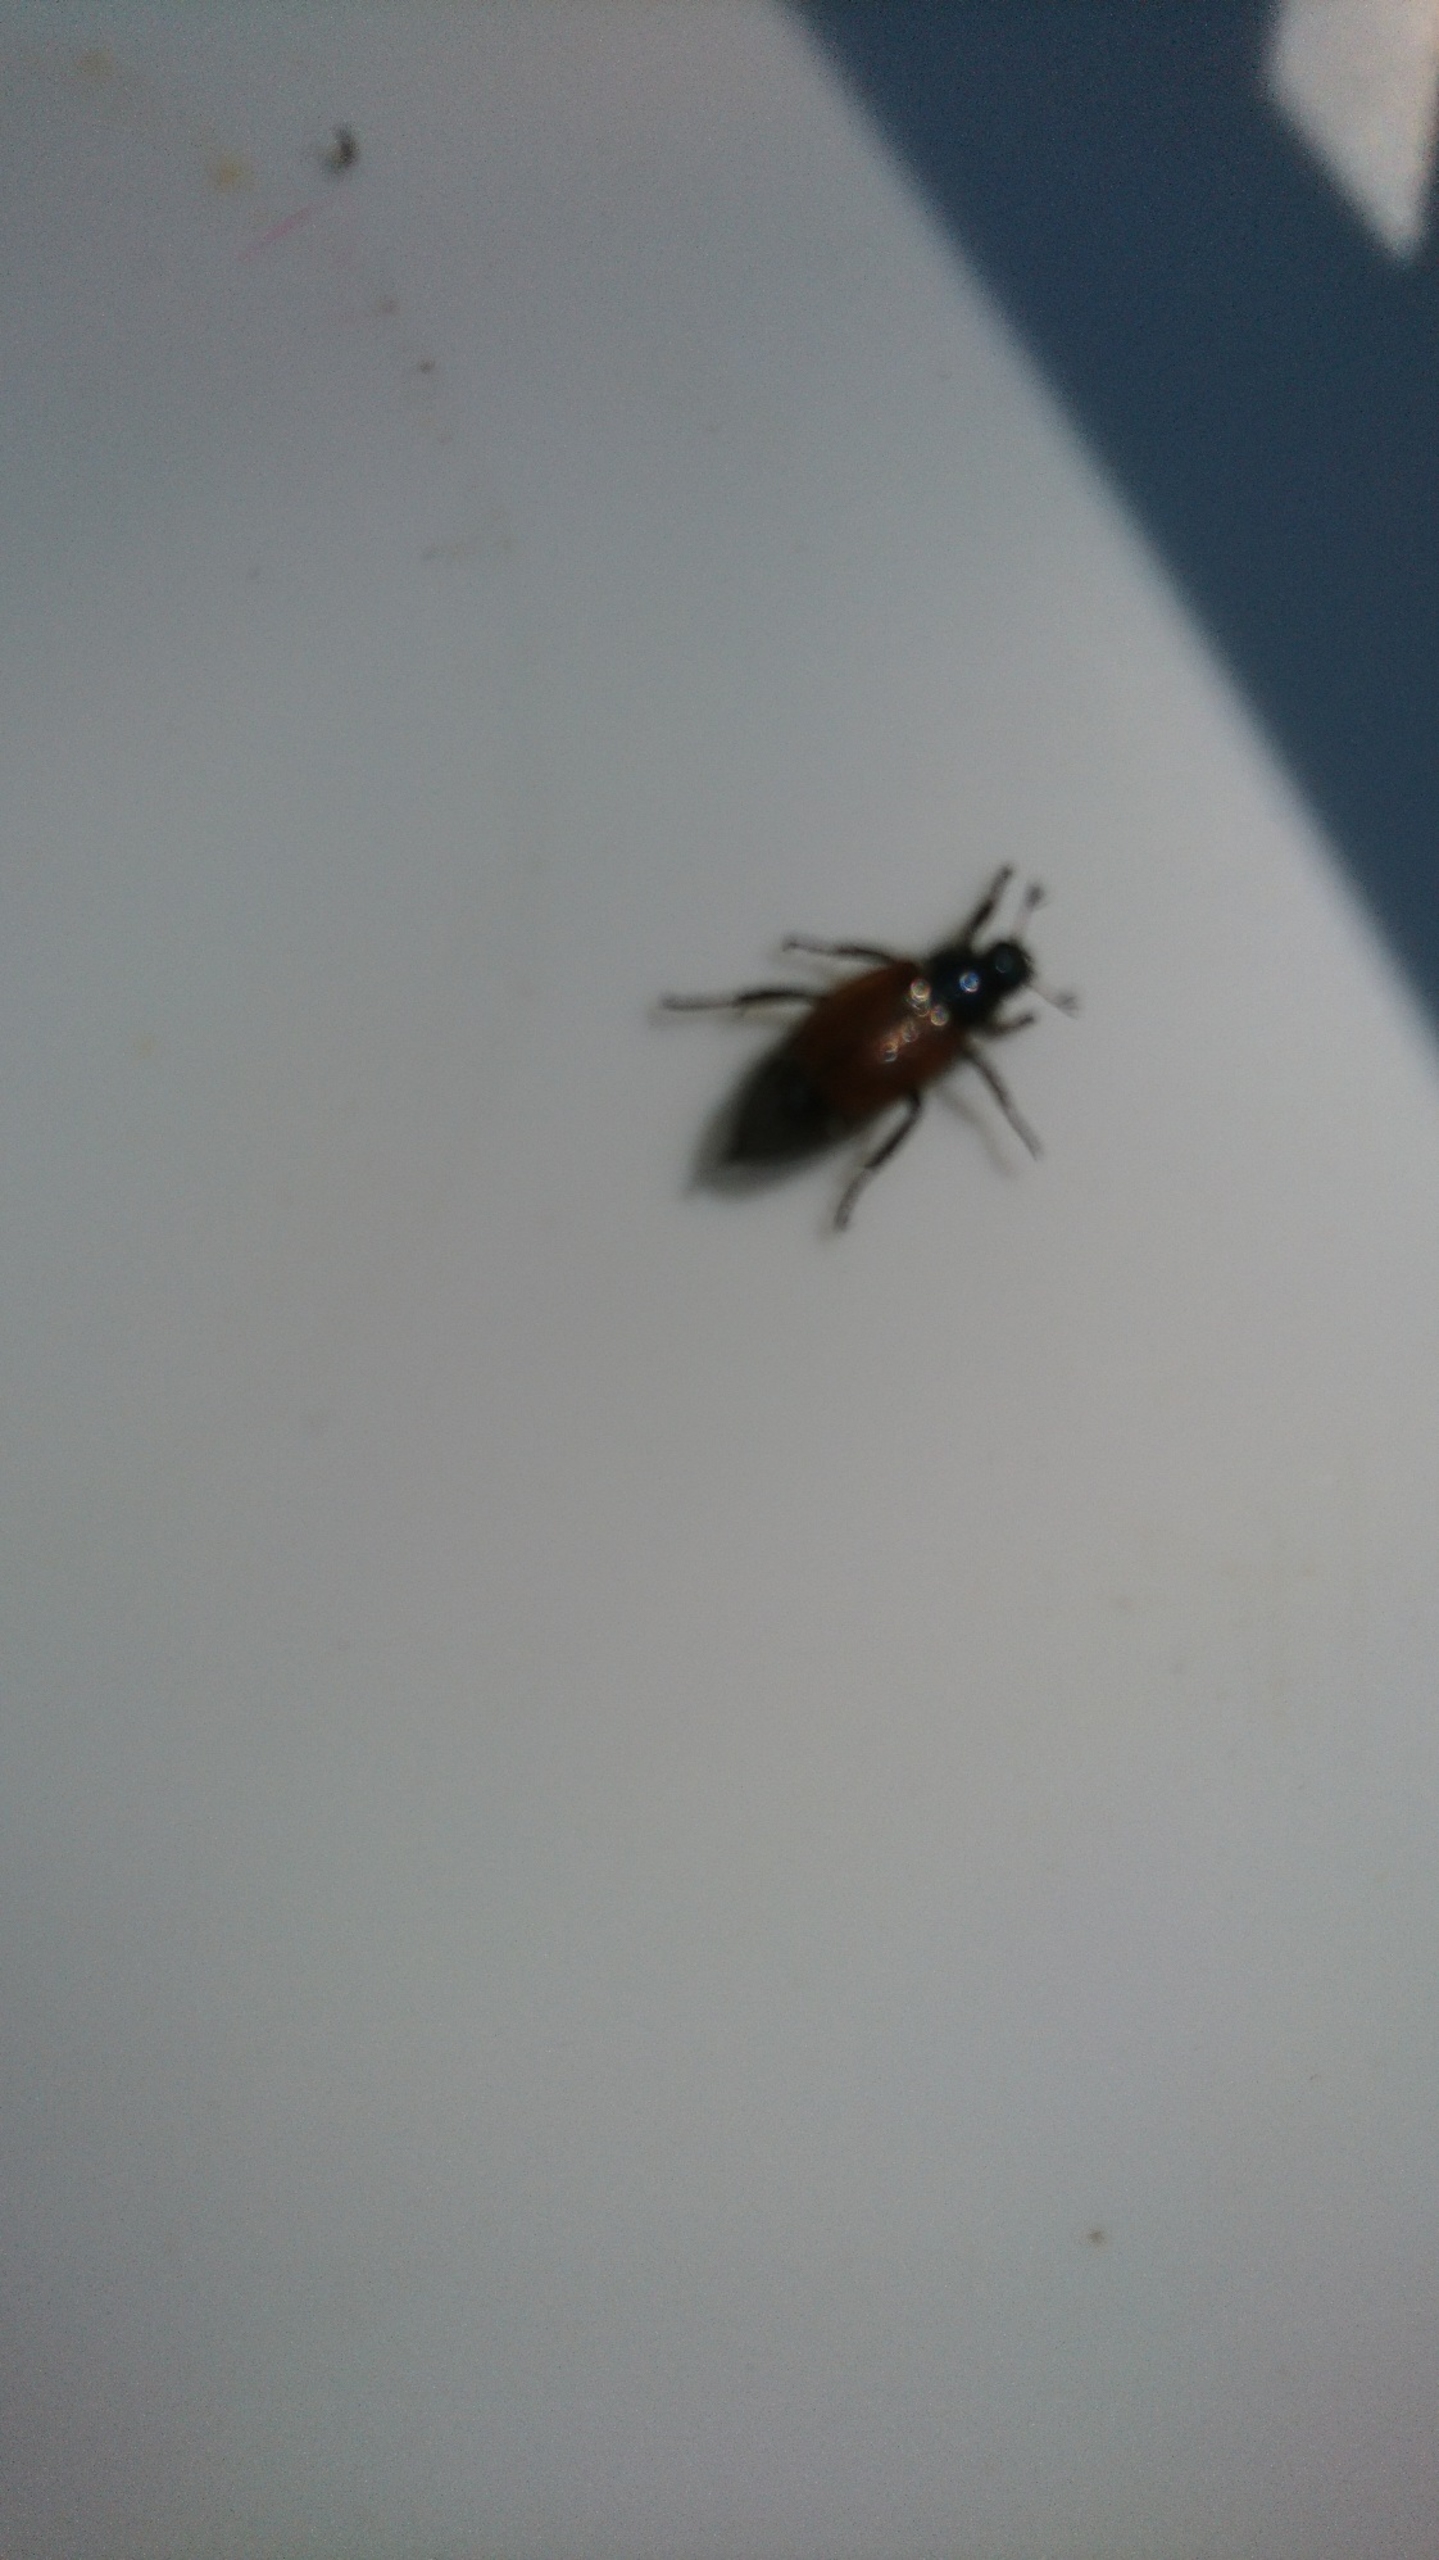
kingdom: Animalia
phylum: Arthropoda
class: Insecta
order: Coleoptera
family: Scarabaeidae
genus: Phyllopertha
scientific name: Phyllopertha horticola
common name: Gåsebille
